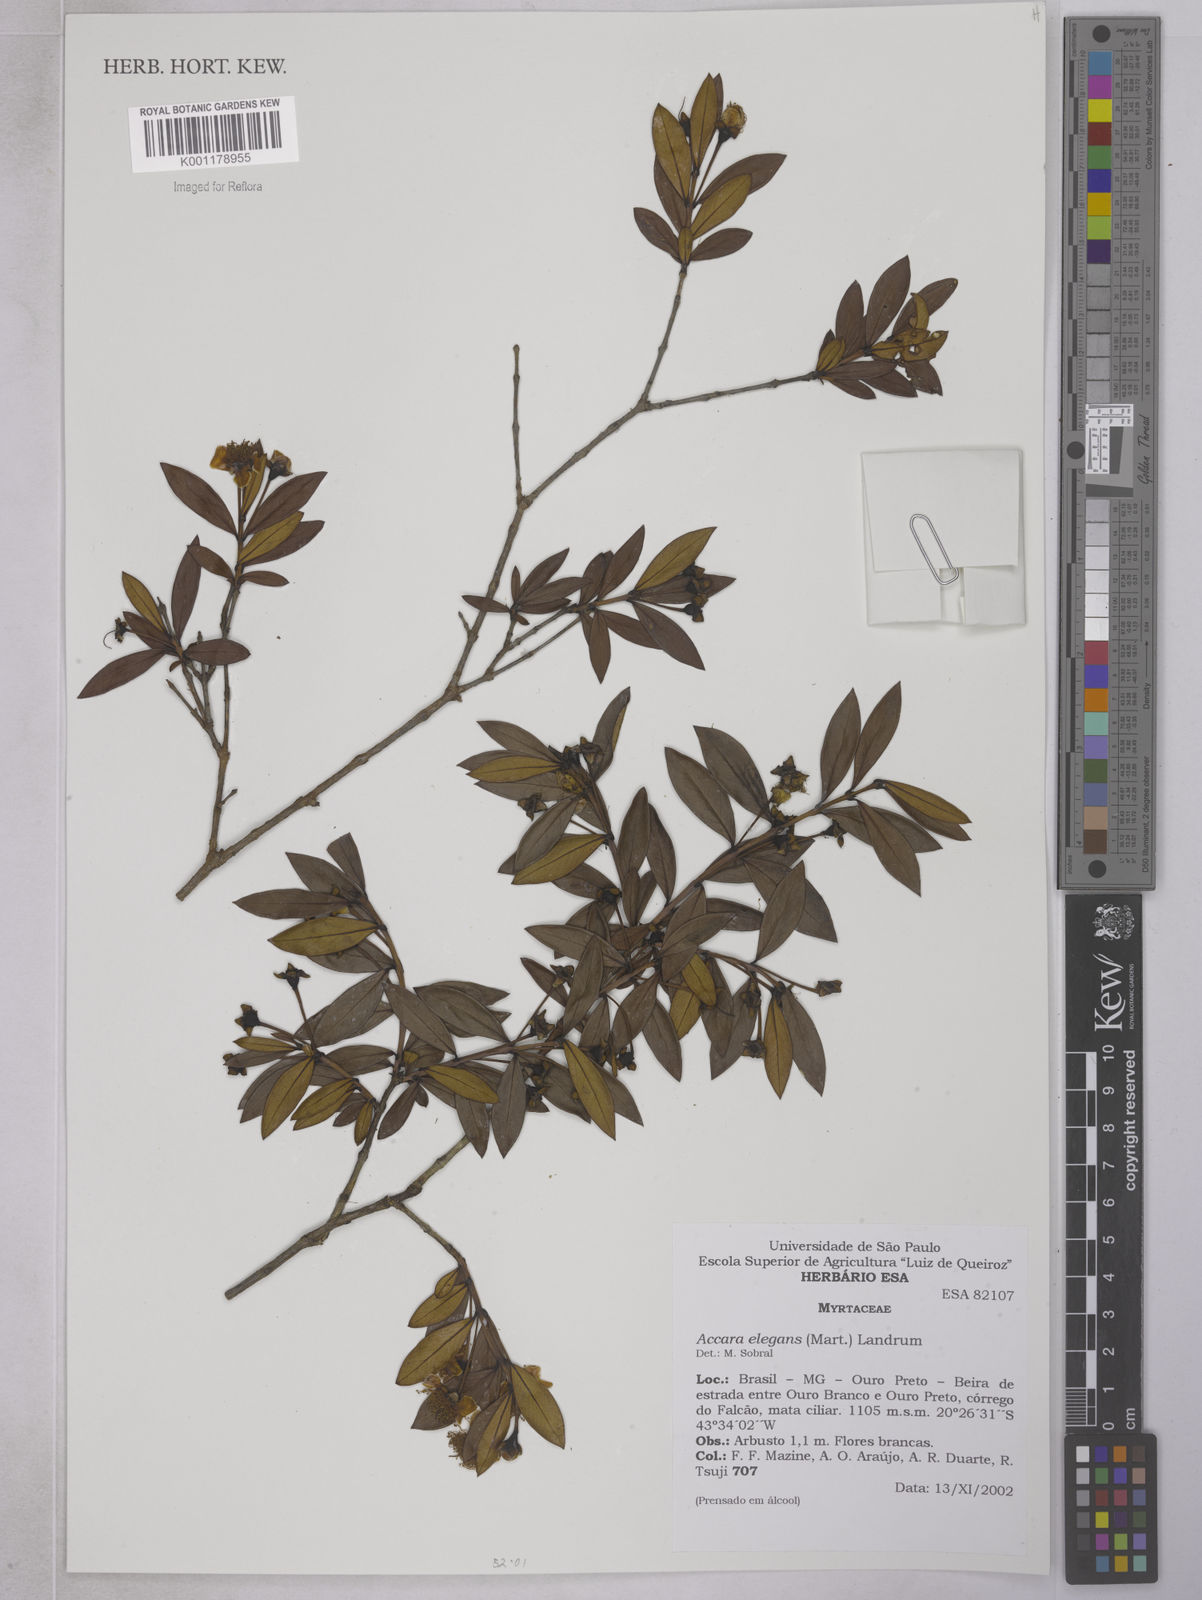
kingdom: Plantae
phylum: Tracheophyta
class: Magnoliopsida
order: Myrtales
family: Myrtaceae
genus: Accara
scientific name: Accara elegans
